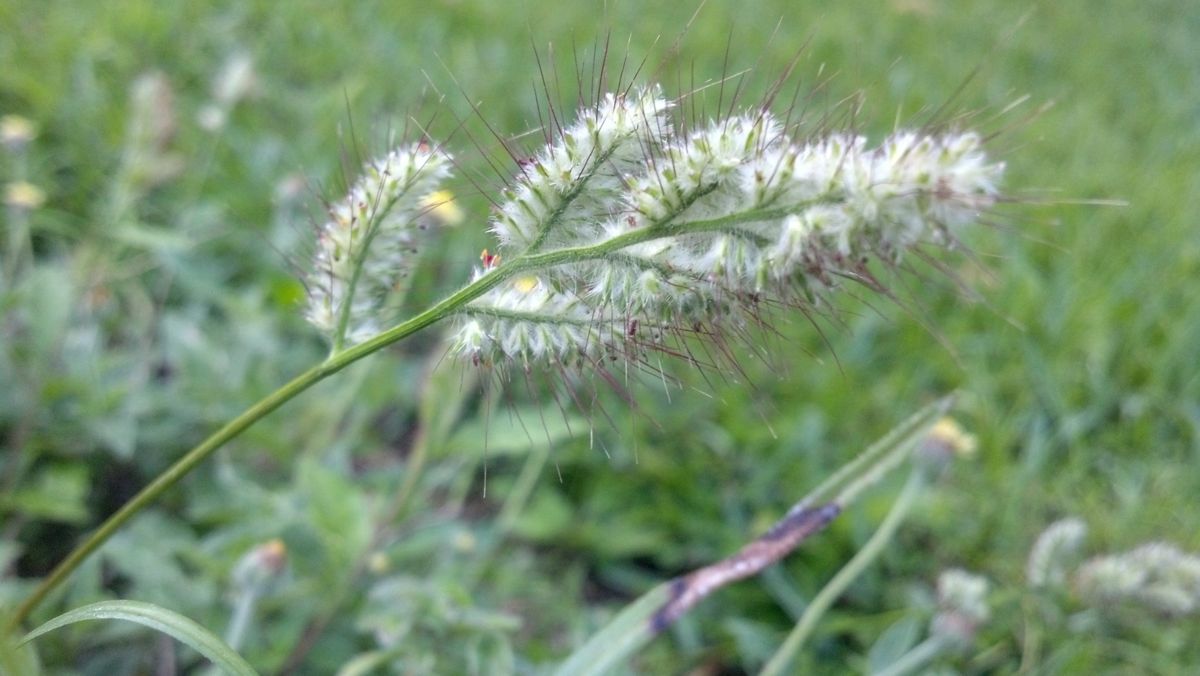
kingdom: Plantae
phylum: Tracheophyta
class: Liliopsida
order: Poales
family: Poaceae
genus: Oplismenus
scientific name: Oplismenus burmanni
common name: Burmann's basketgrass
